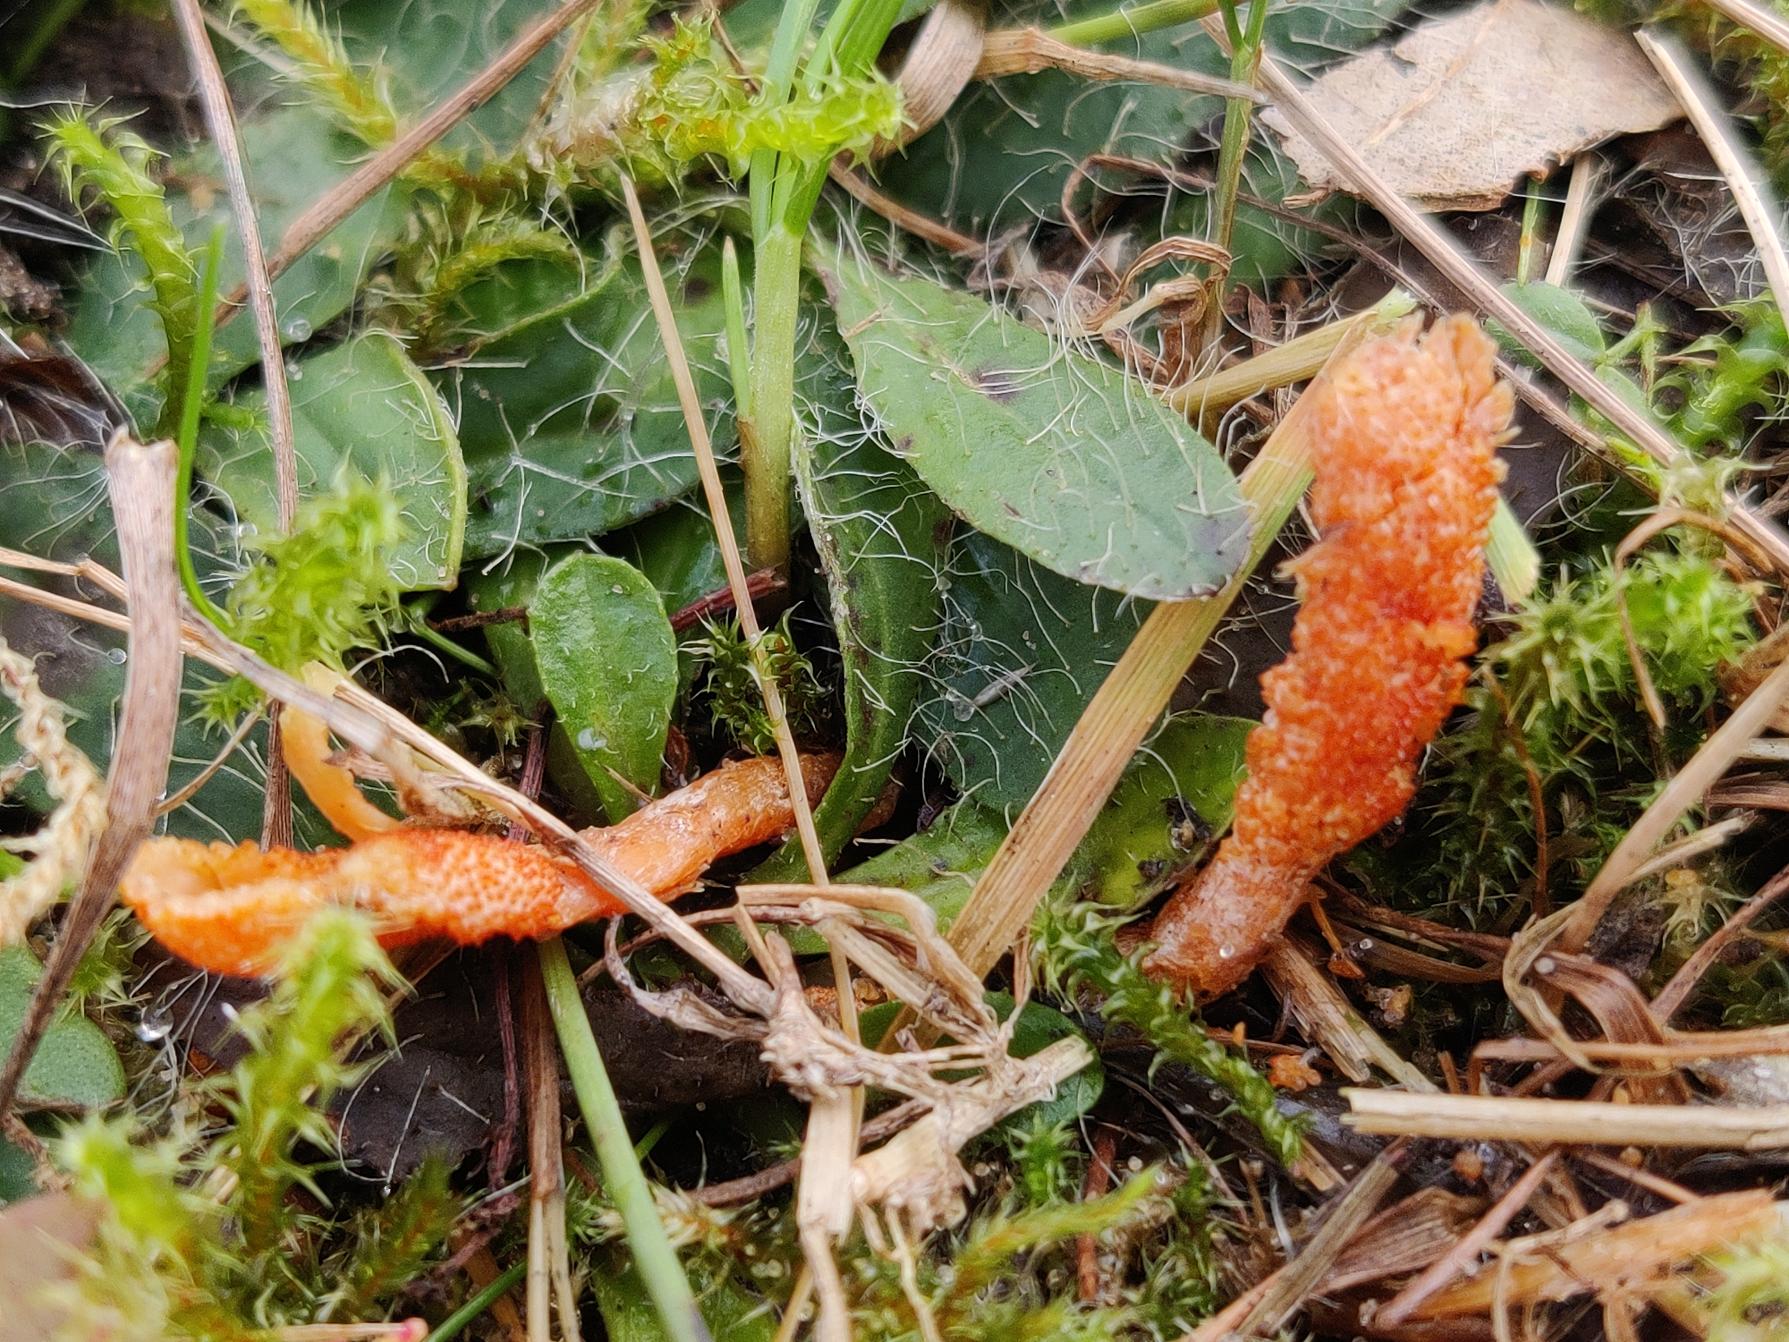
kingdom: Fungi
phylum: Ascomycota
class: Sordariomycetes
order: Hypocreales
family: Cordycipitaceae
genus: Cordyceps
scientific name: Cordyceps militaris
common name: Puppe-snyltekølle
